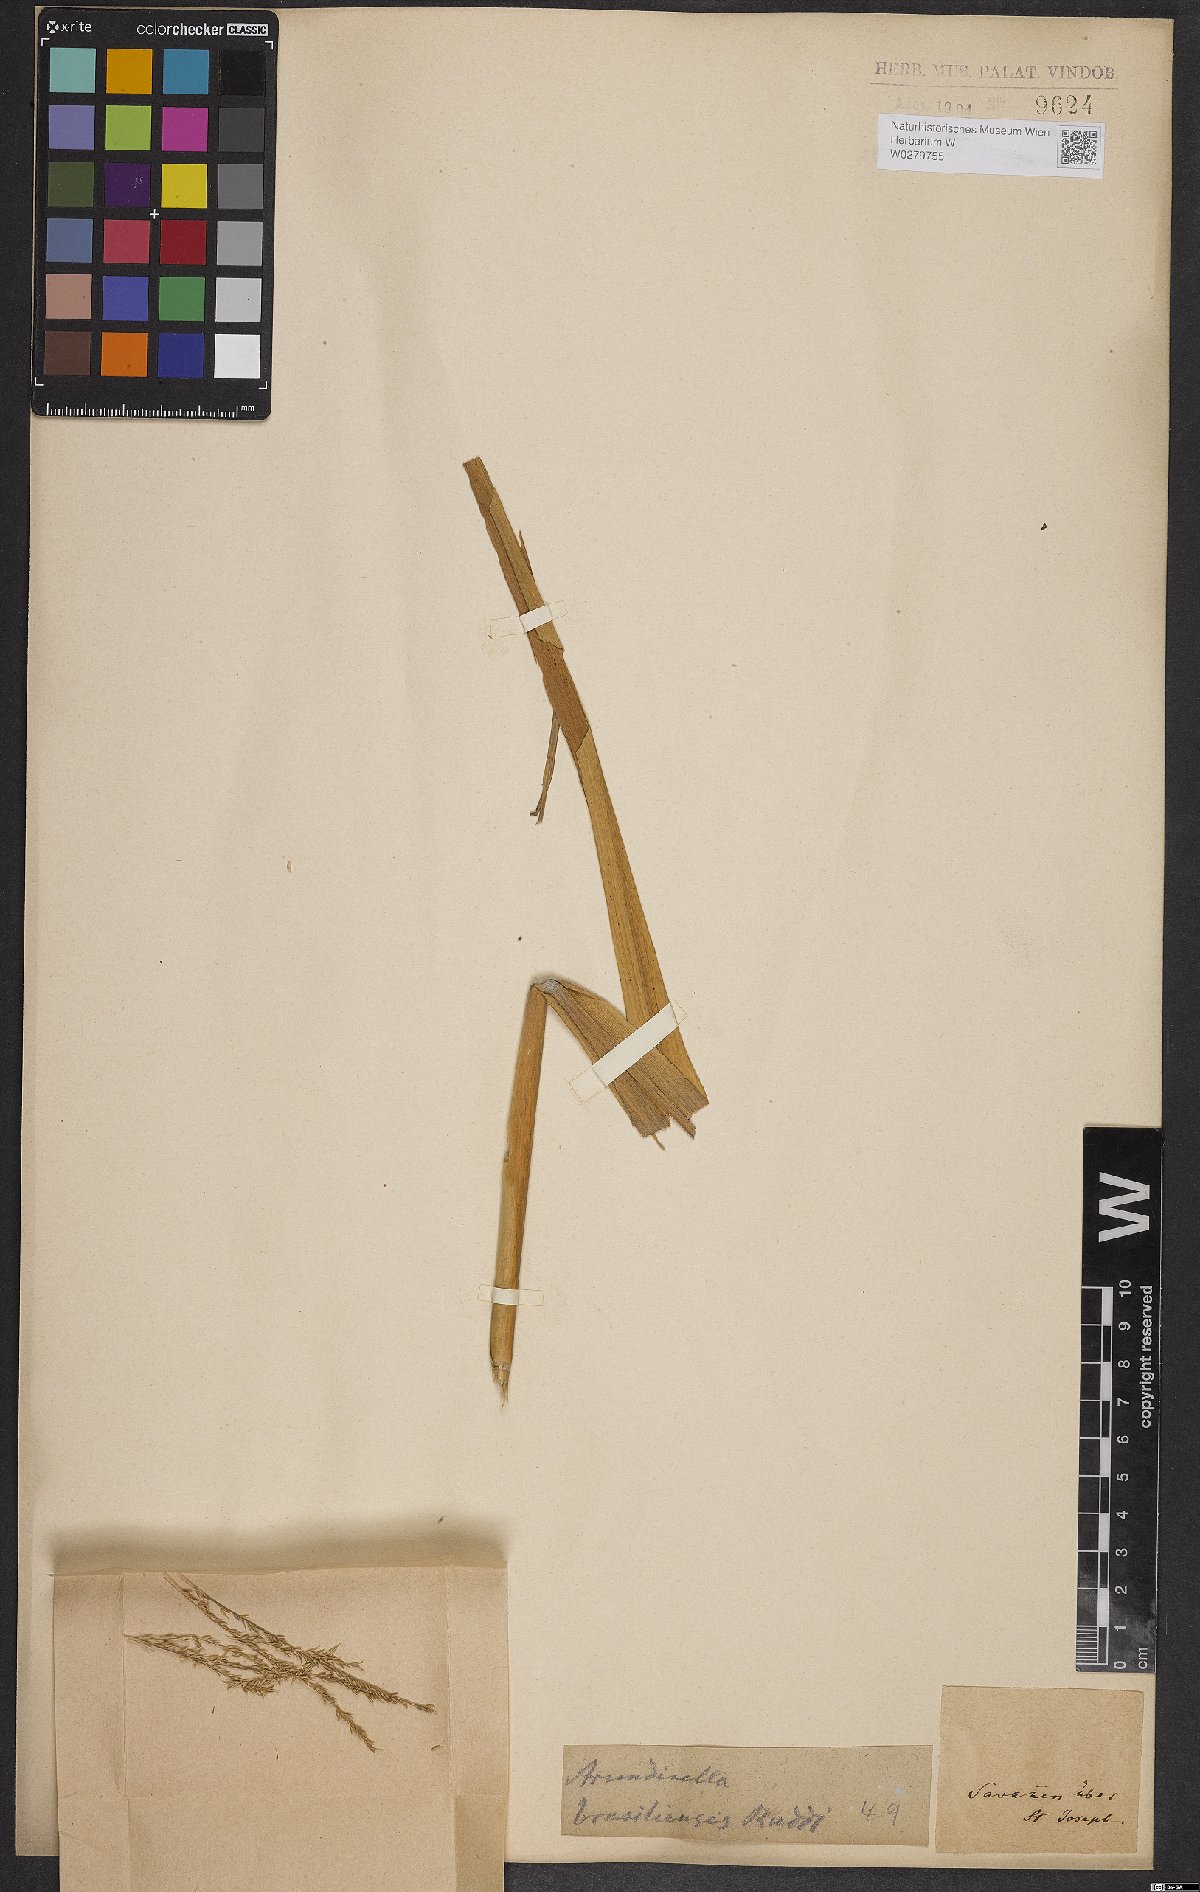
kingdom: Plantae
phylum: Tracheophyta
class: Liliopsida
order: Poales
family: Poaceae
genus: Arundinella
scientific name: Arundinella hispida
